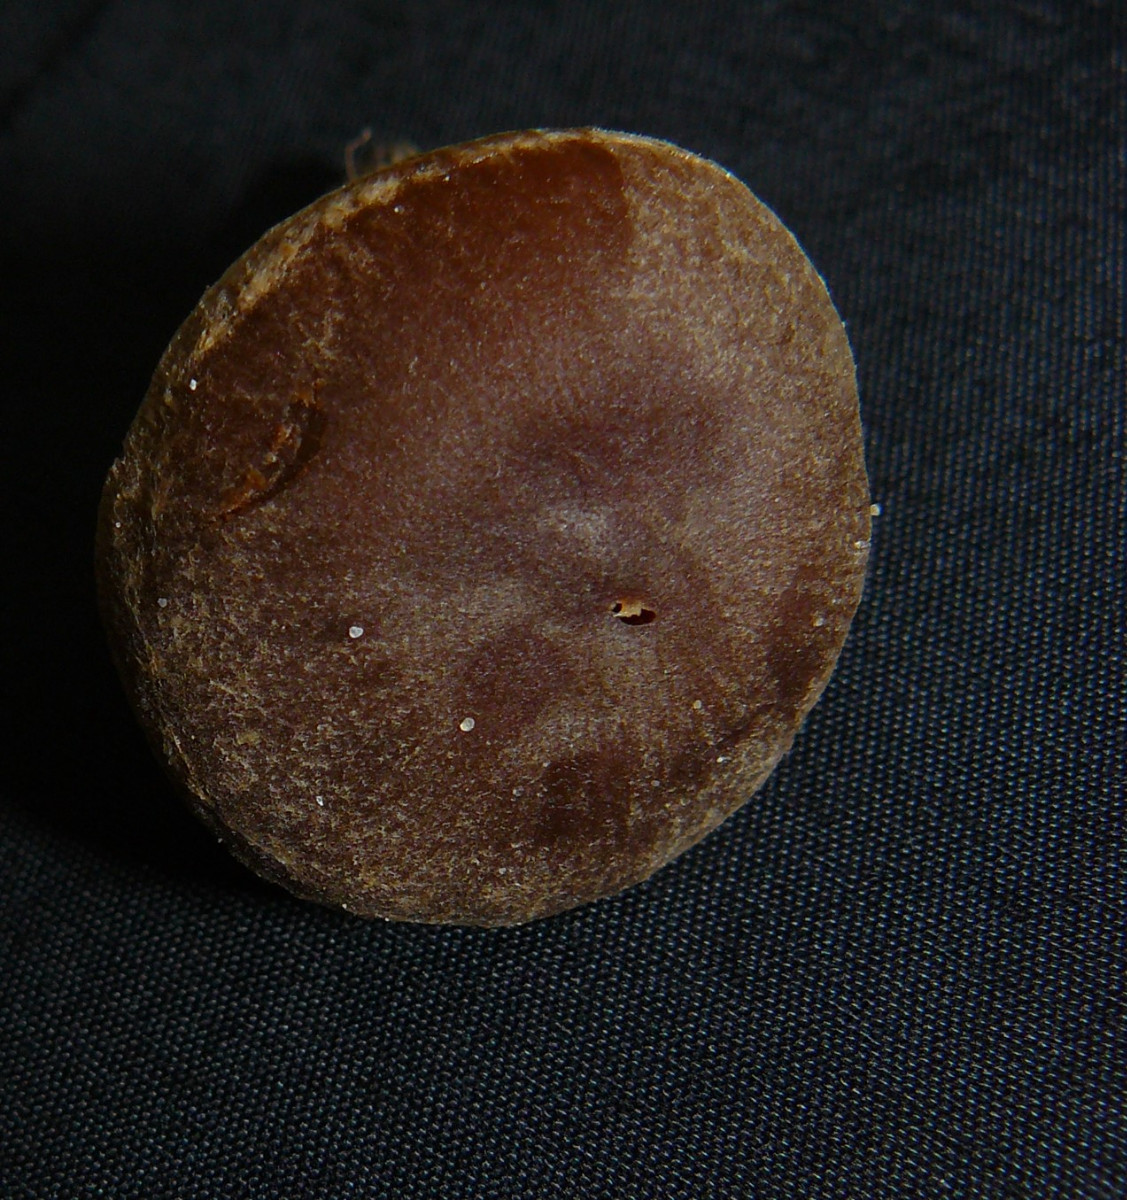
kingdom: Fungi
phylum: Basidiomycota
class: Agaricomycetes
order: Agaricales
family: Cortinariaceae
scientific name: Cortinariaceae
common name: slørhatfamilien
